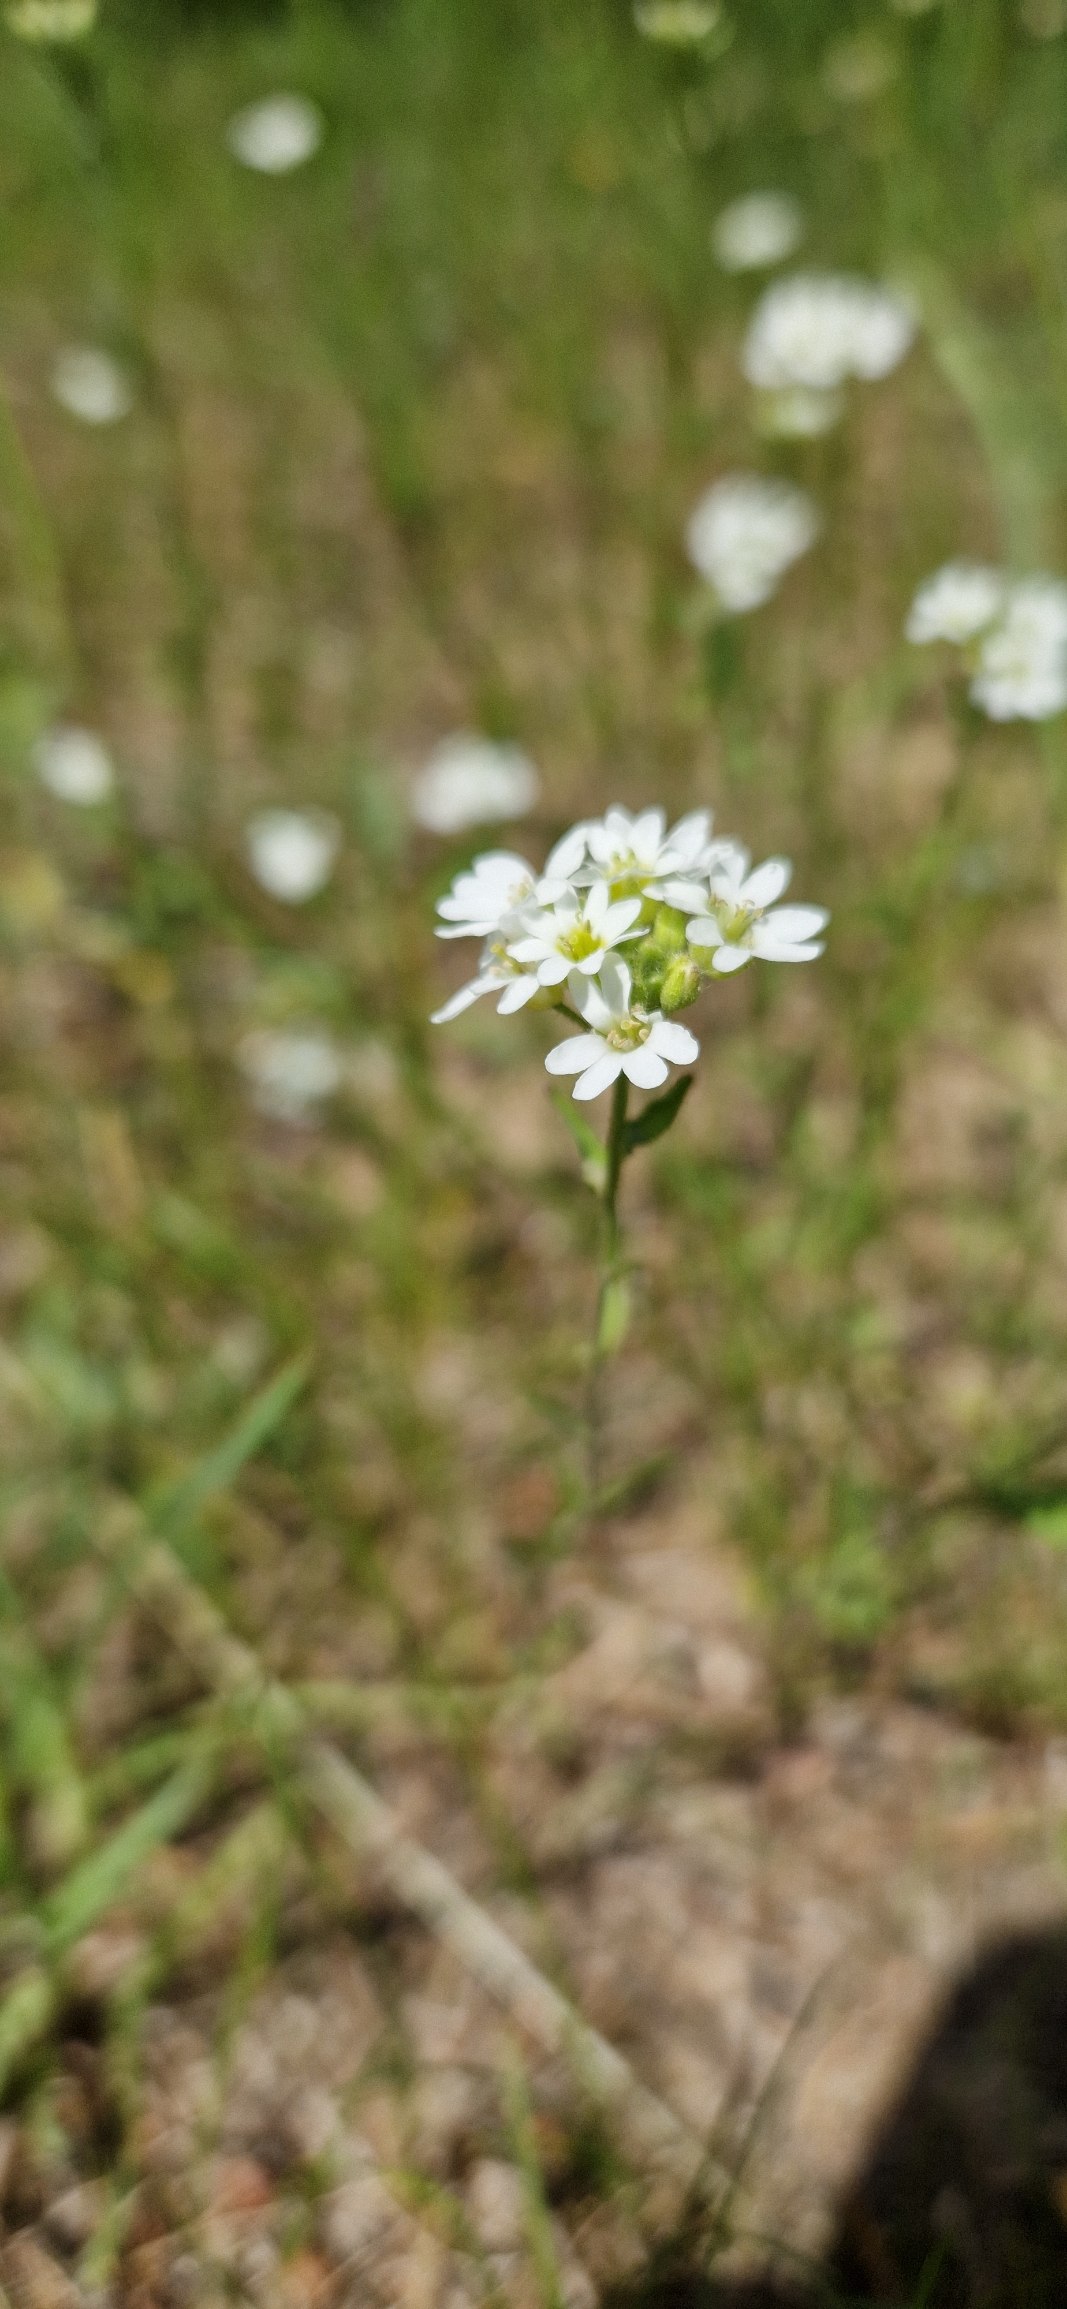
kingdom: Plantae
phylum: Tracheophyta
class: Magnoliopsida
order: Brassicales
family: Brassicaceae
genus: Berteroa
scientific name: Berteroa incana
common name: Kløvplade
